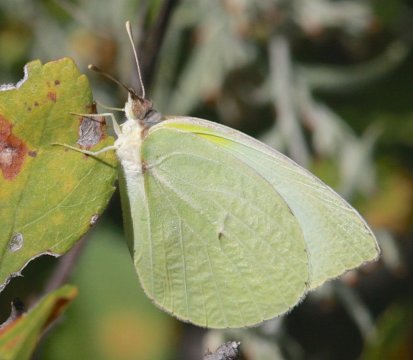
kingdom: Animalia
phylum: Arthropoda
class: Insecta
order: Lepidoptera
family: Pieridae
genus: Kricogonia
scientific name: Kricogonia lyside
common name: Lyside Sulphur
